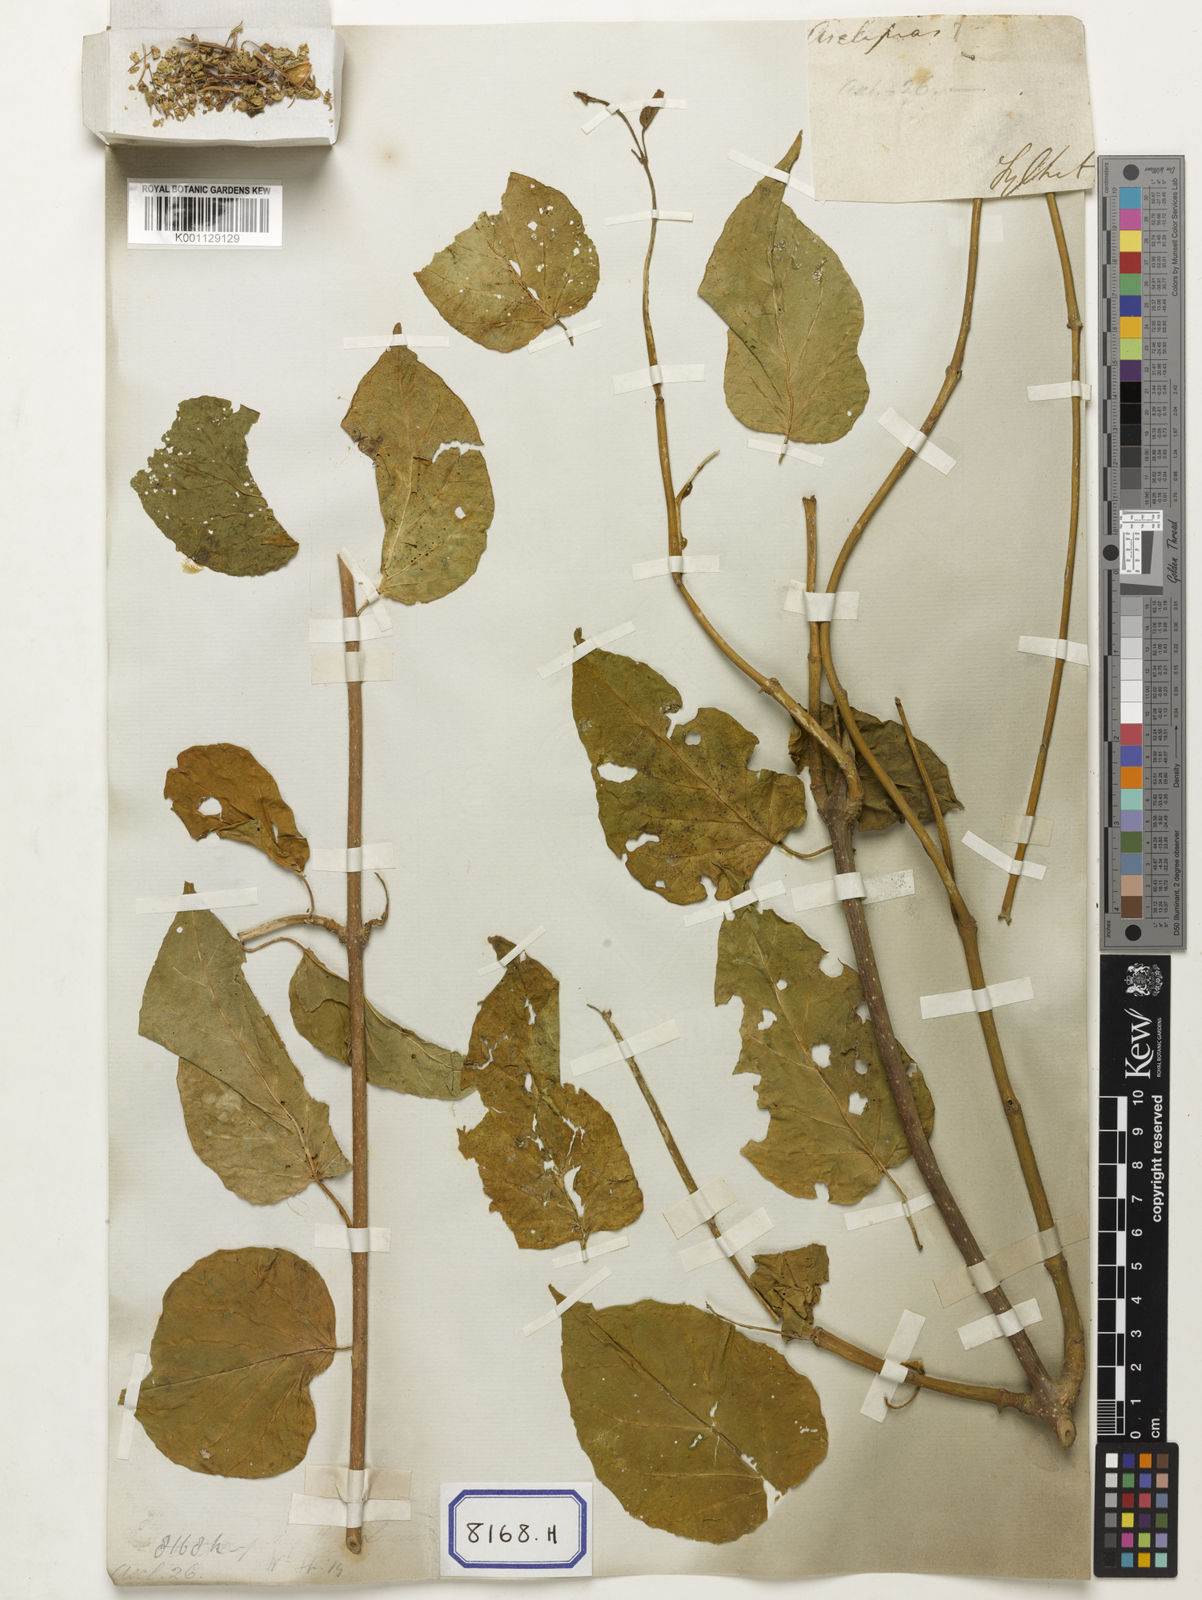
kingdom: Plantae
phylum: Tracheophyta
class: Magnoliopsida
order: Gentianales
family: Apocynaceae
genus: Stephanotis
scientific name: Stephanotis volubilis
